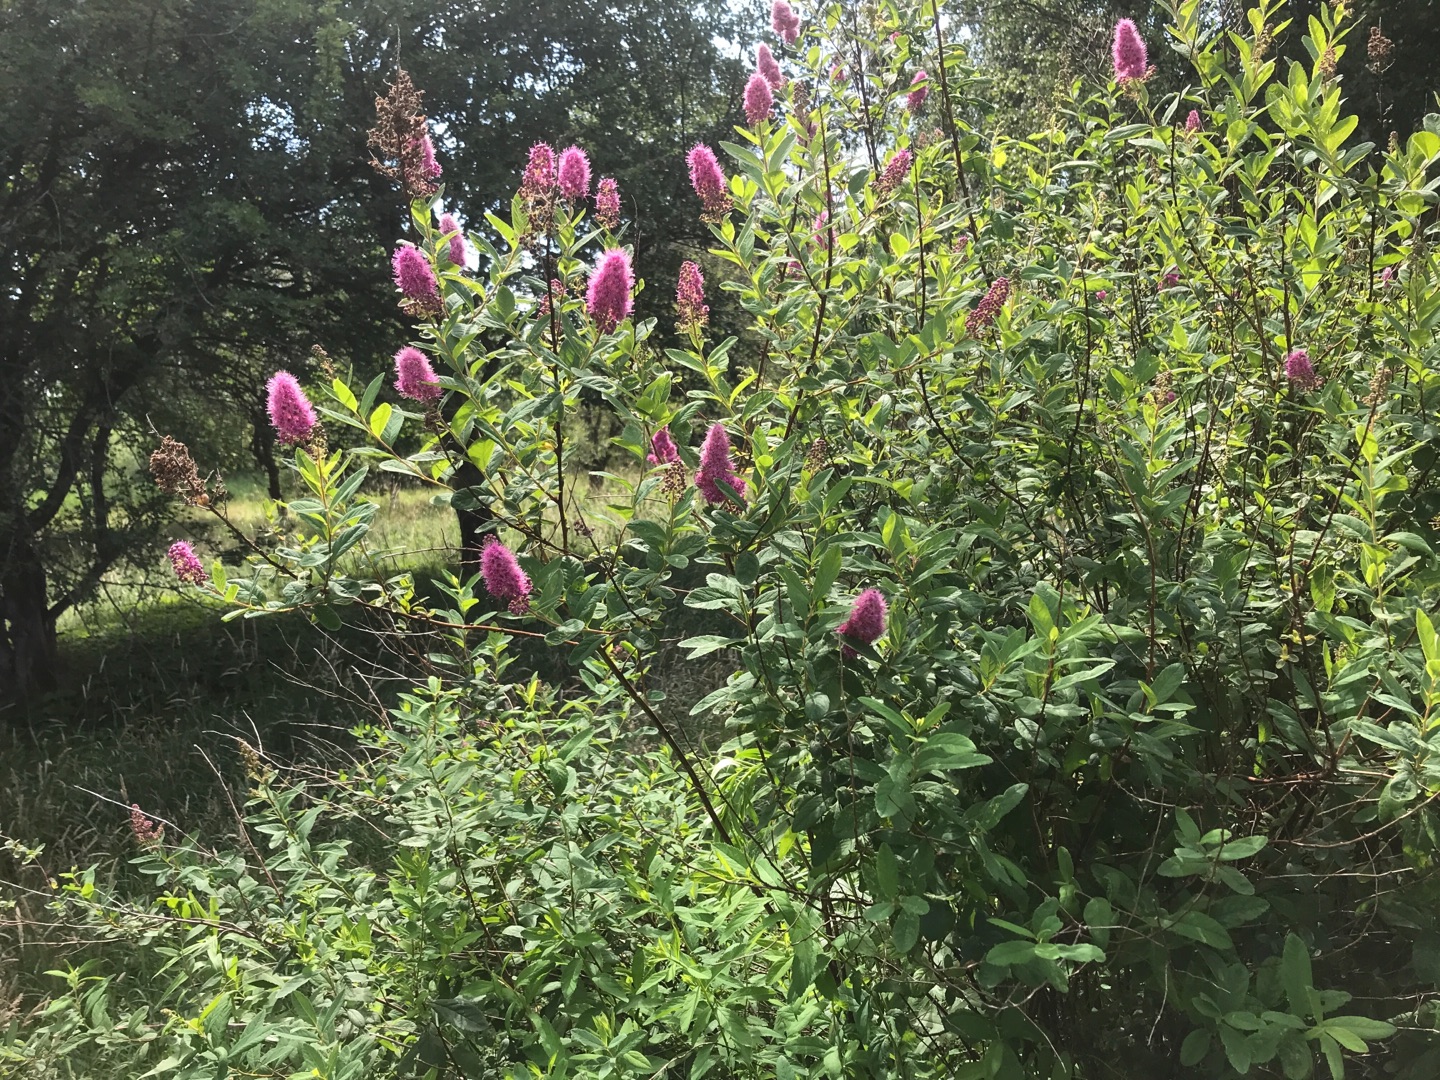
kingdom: Plantae
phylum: Tracheophyta
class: Magnoliopsida
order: Rosales
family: Rosaceae
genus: Spiraea
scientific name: Spiraea
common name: Spiræaslægten
